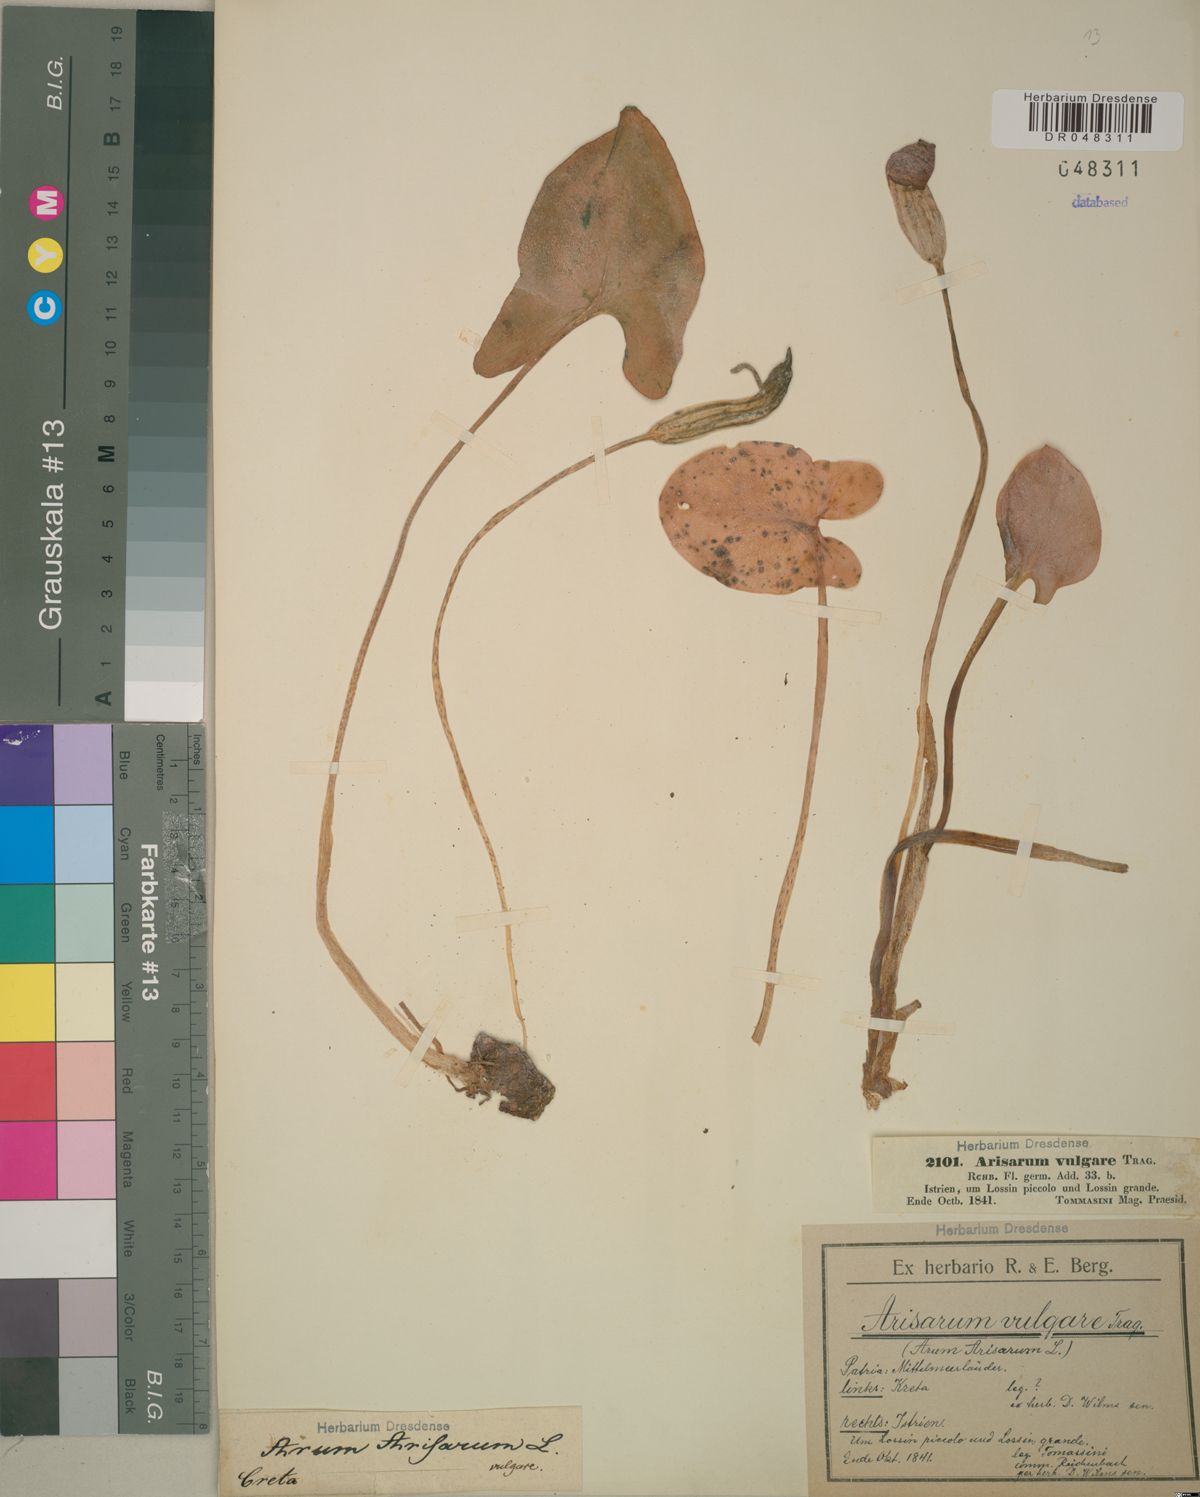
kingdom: Plantae
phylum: Tracheophyta
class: Liliopsida
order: Alismatales
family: Araceae
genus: Arisarum
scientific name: Arisarum vulgare
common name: Common arisarum
